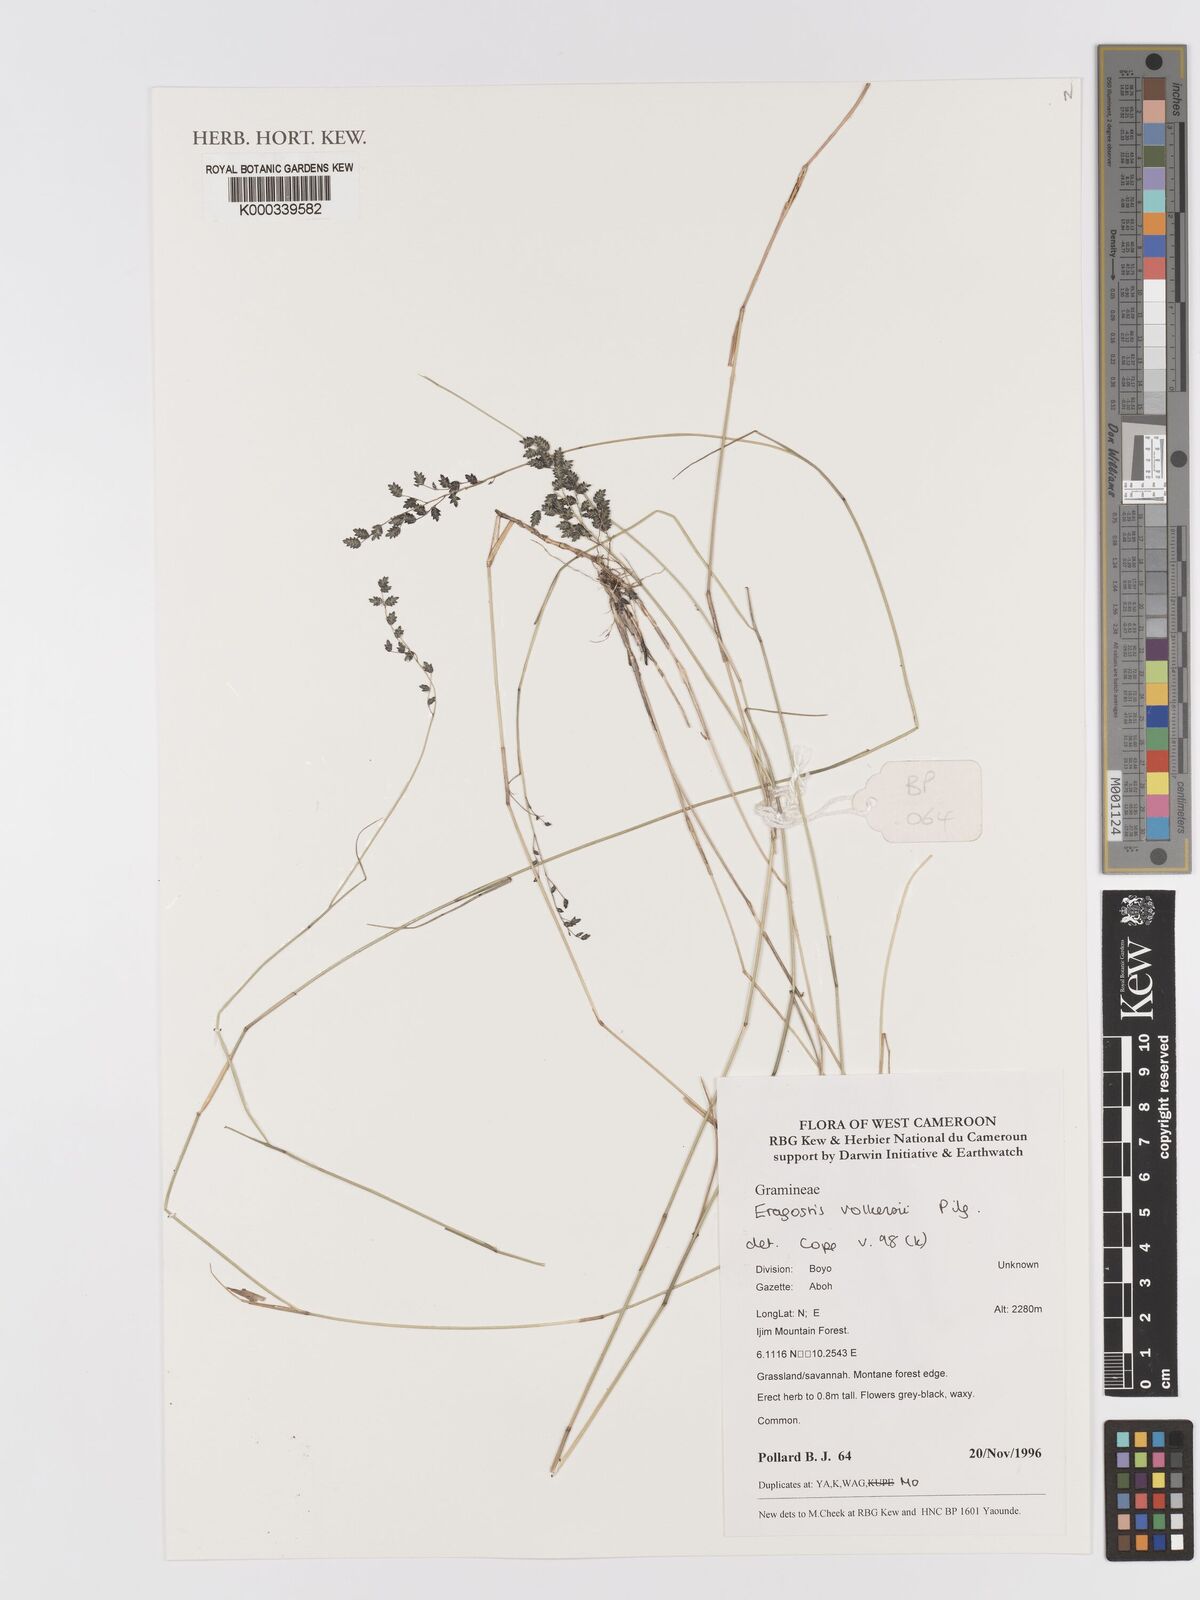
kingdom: Plantae
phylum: Tracheophyta
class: Liliopsida
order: Poales
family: Poaceae
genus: Eragrostis
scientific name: Eragrostis volkensii
